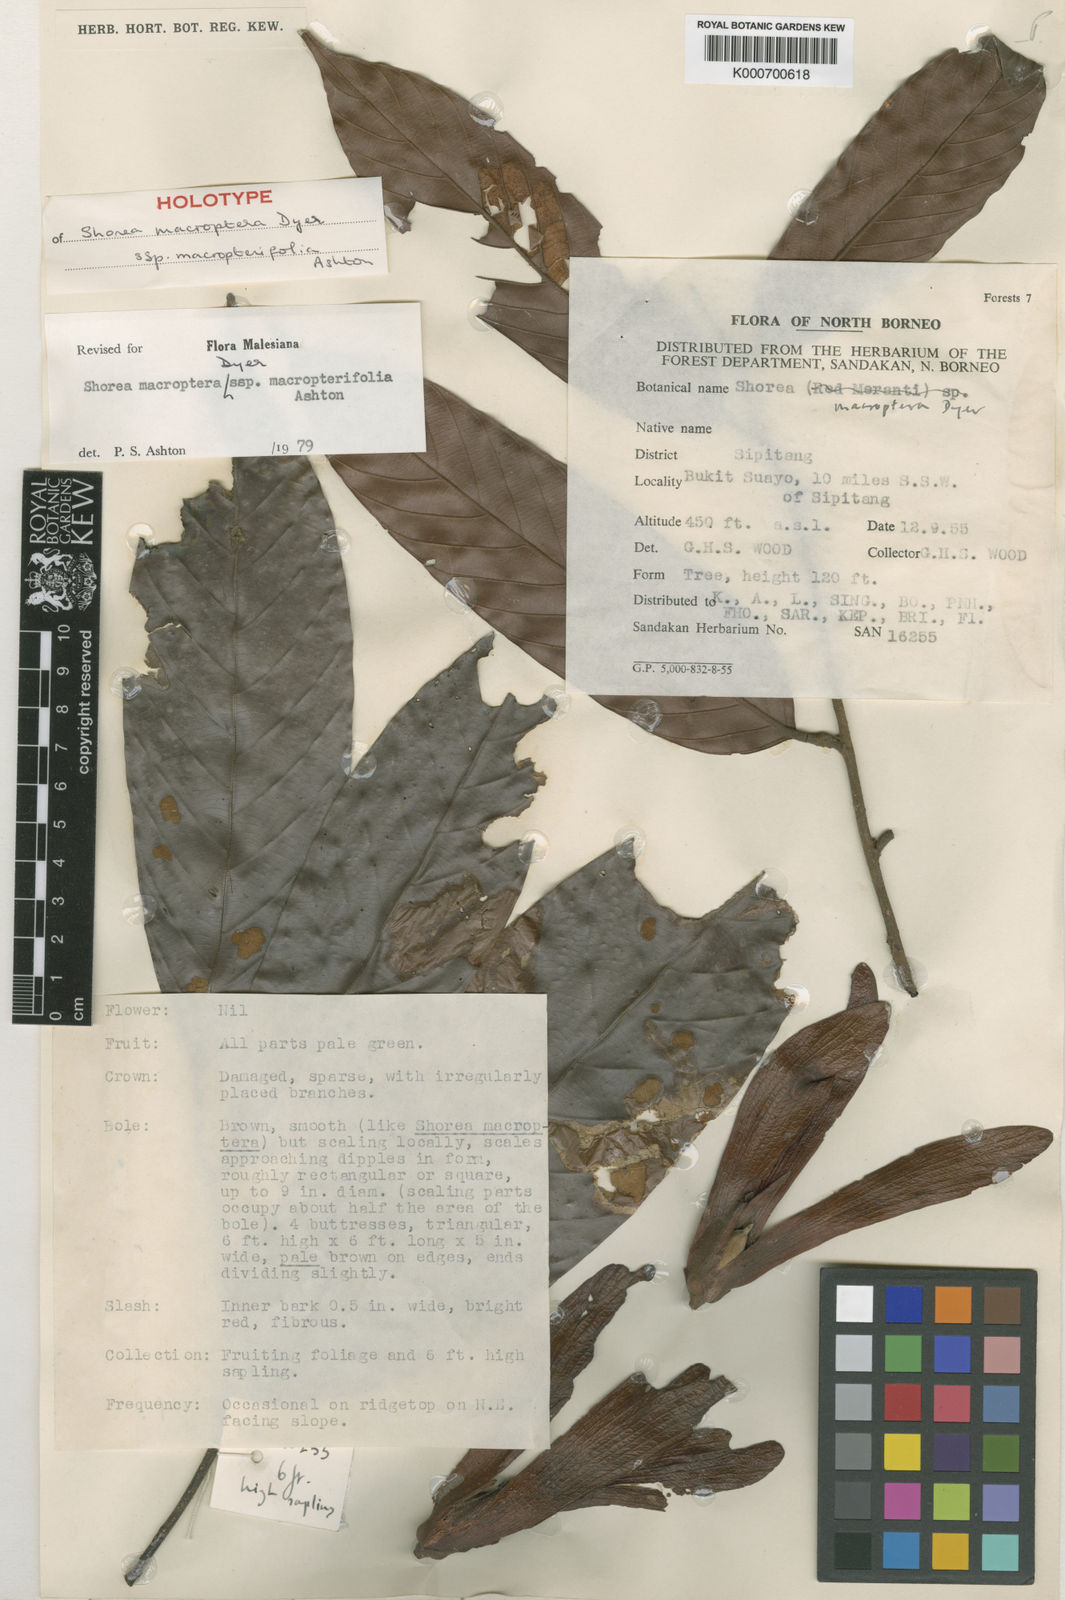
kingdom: Plantae
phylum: Tracheophyta
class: Magnoliopsida
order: Malvales
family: Dipterocarpaceae
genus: Shorea
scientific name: Shorea macroptera
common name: Light red meranti
